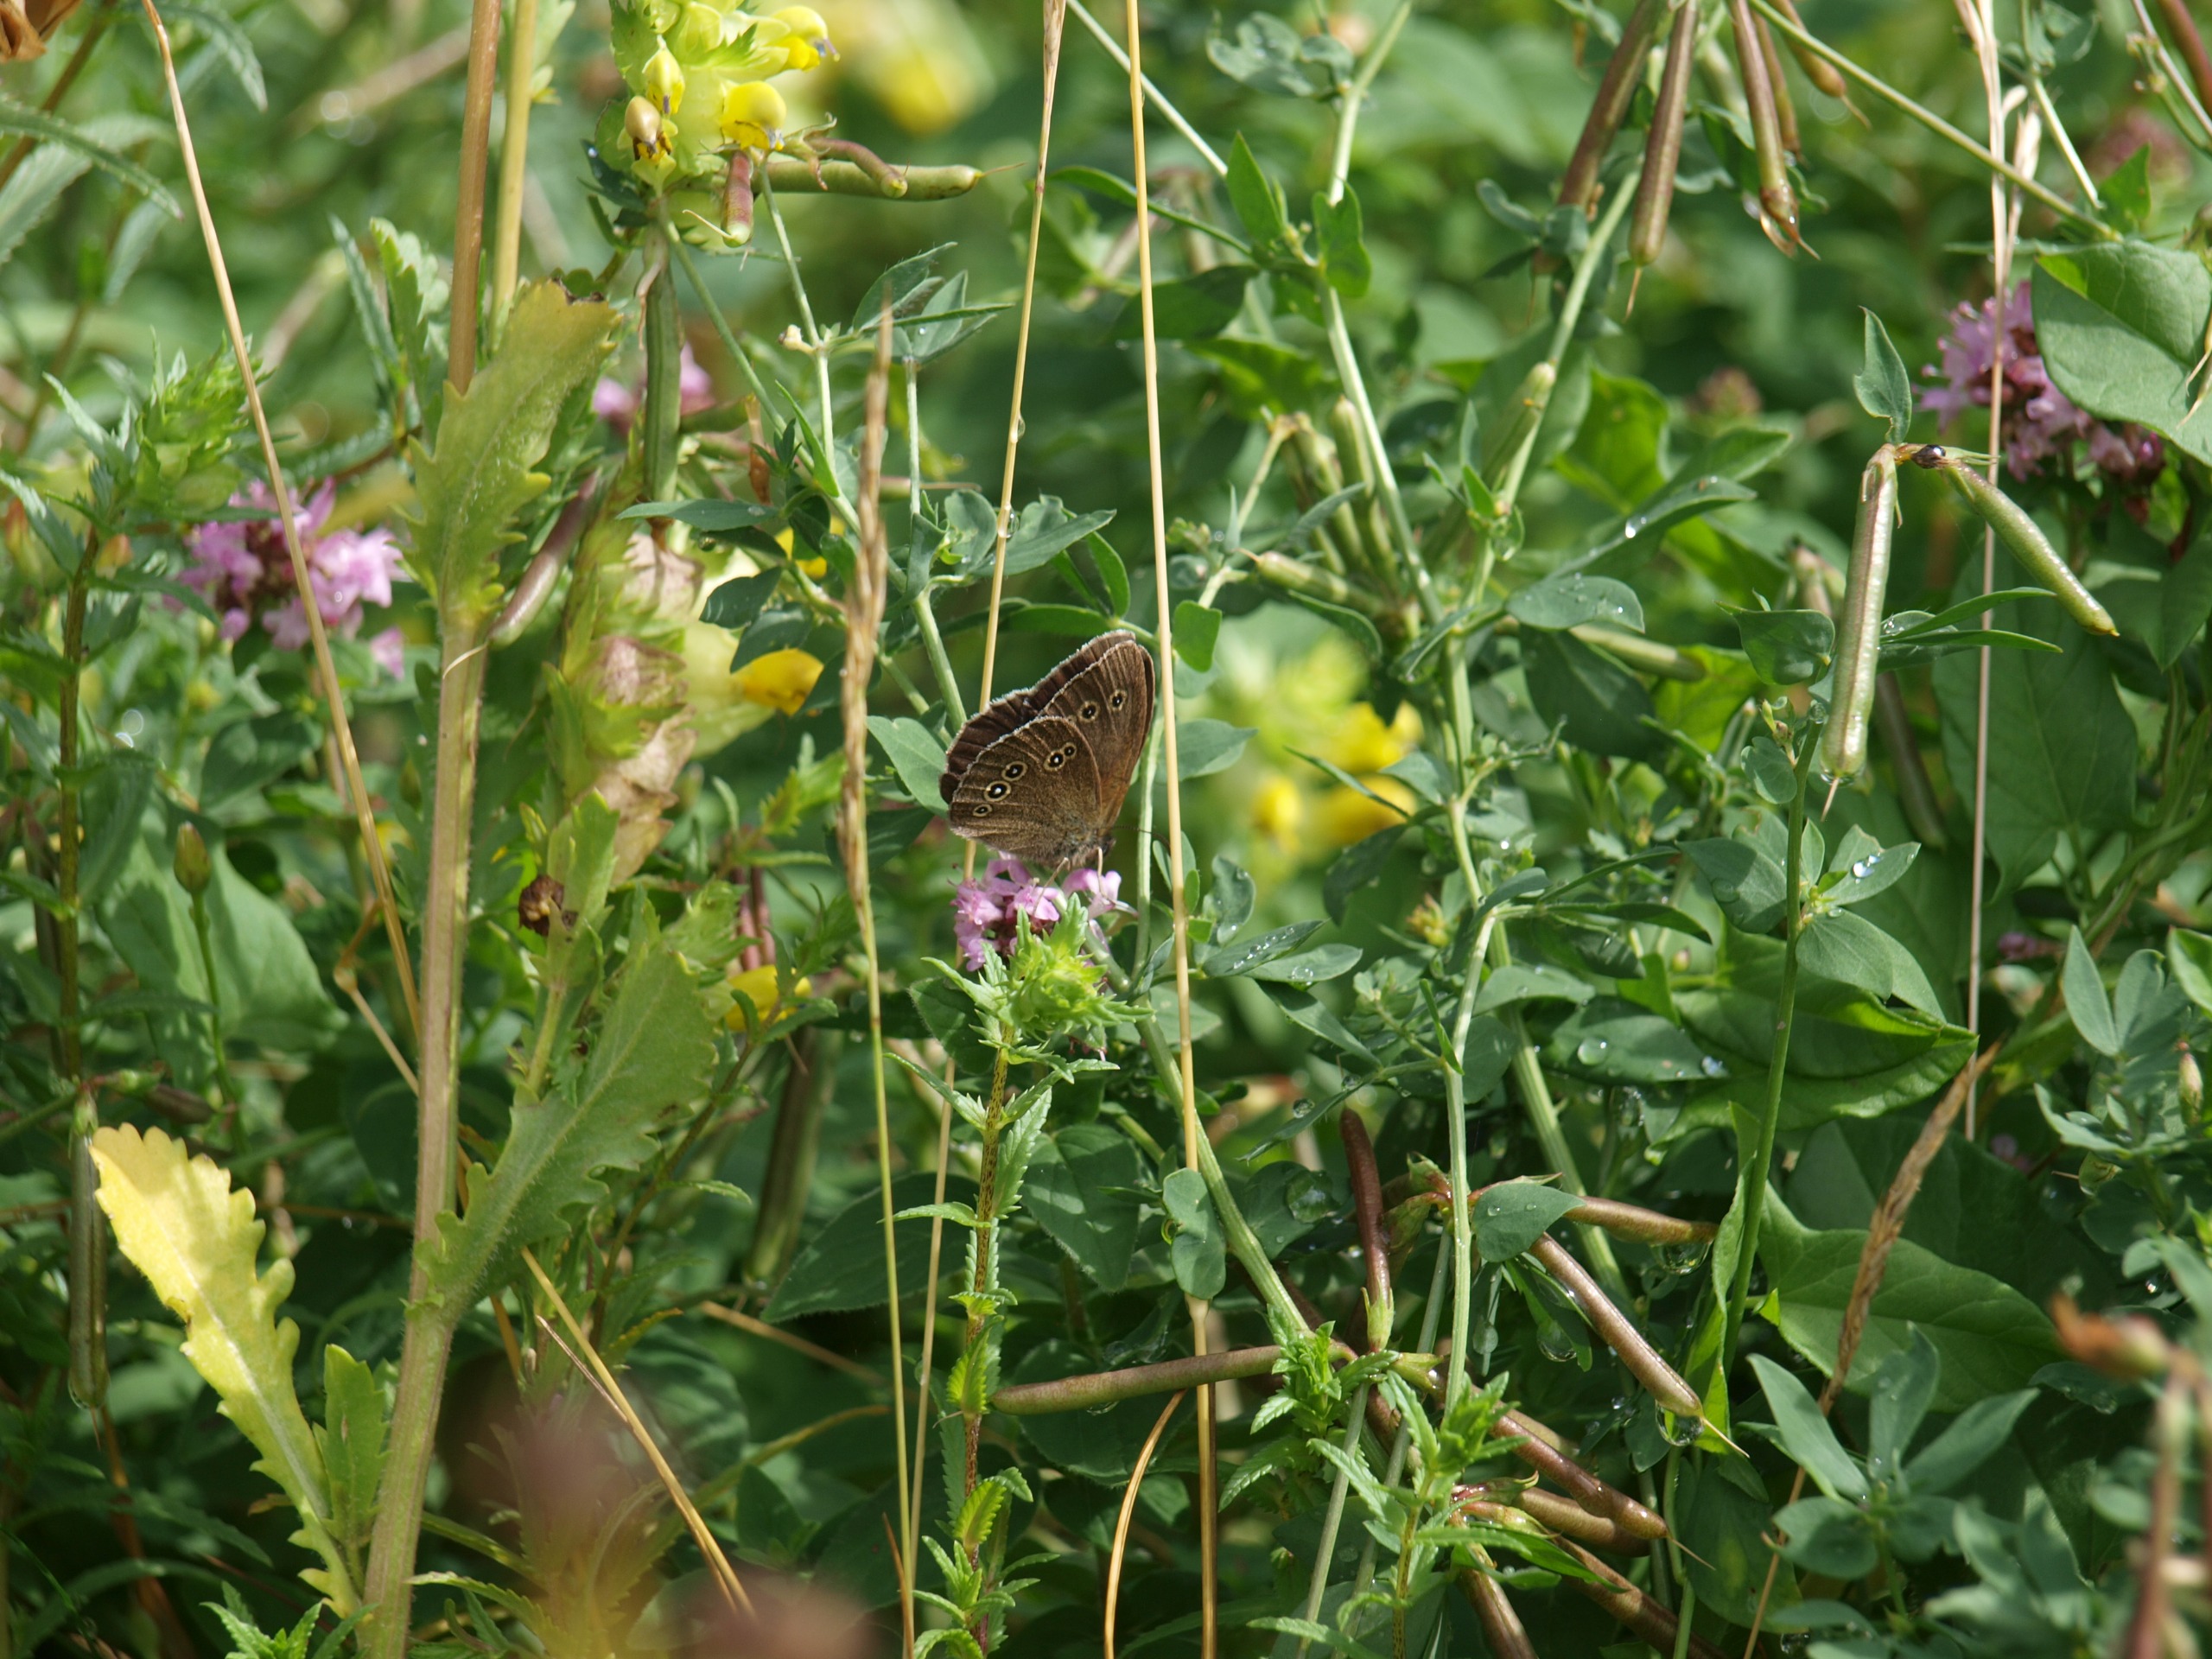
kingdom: Animalia
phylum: Arthropoda
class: Insecta
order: Lepidoptera
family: Nymphalidae
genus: Aphantopus
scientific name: Aphantopus hyperantus
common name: Engrandøje
